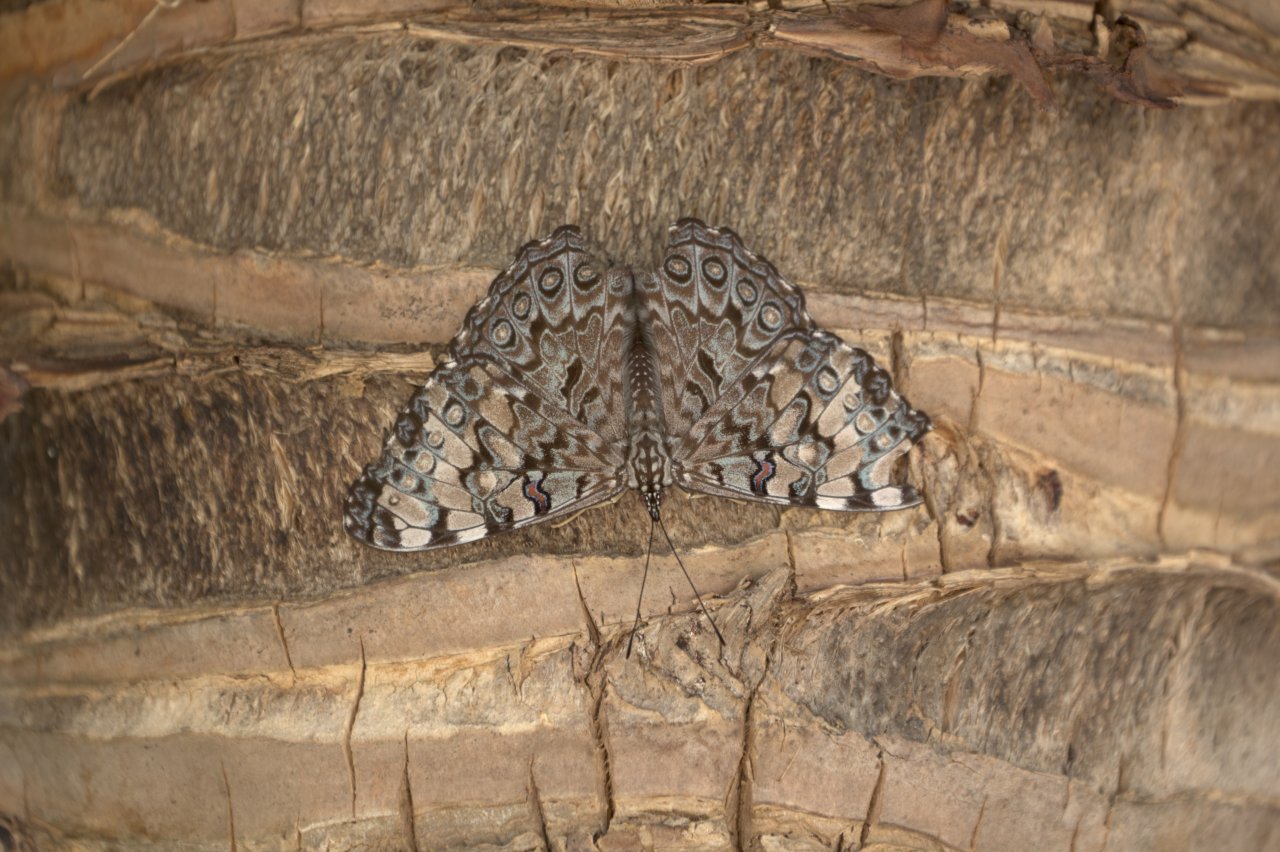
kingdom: Animalia
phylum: Arthropoda
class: Insecta
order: Lepidoptera
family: Nymphalidae
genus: Hamadryas
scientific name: Hamadryas guatemalena
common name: Guatemalan Cracker
